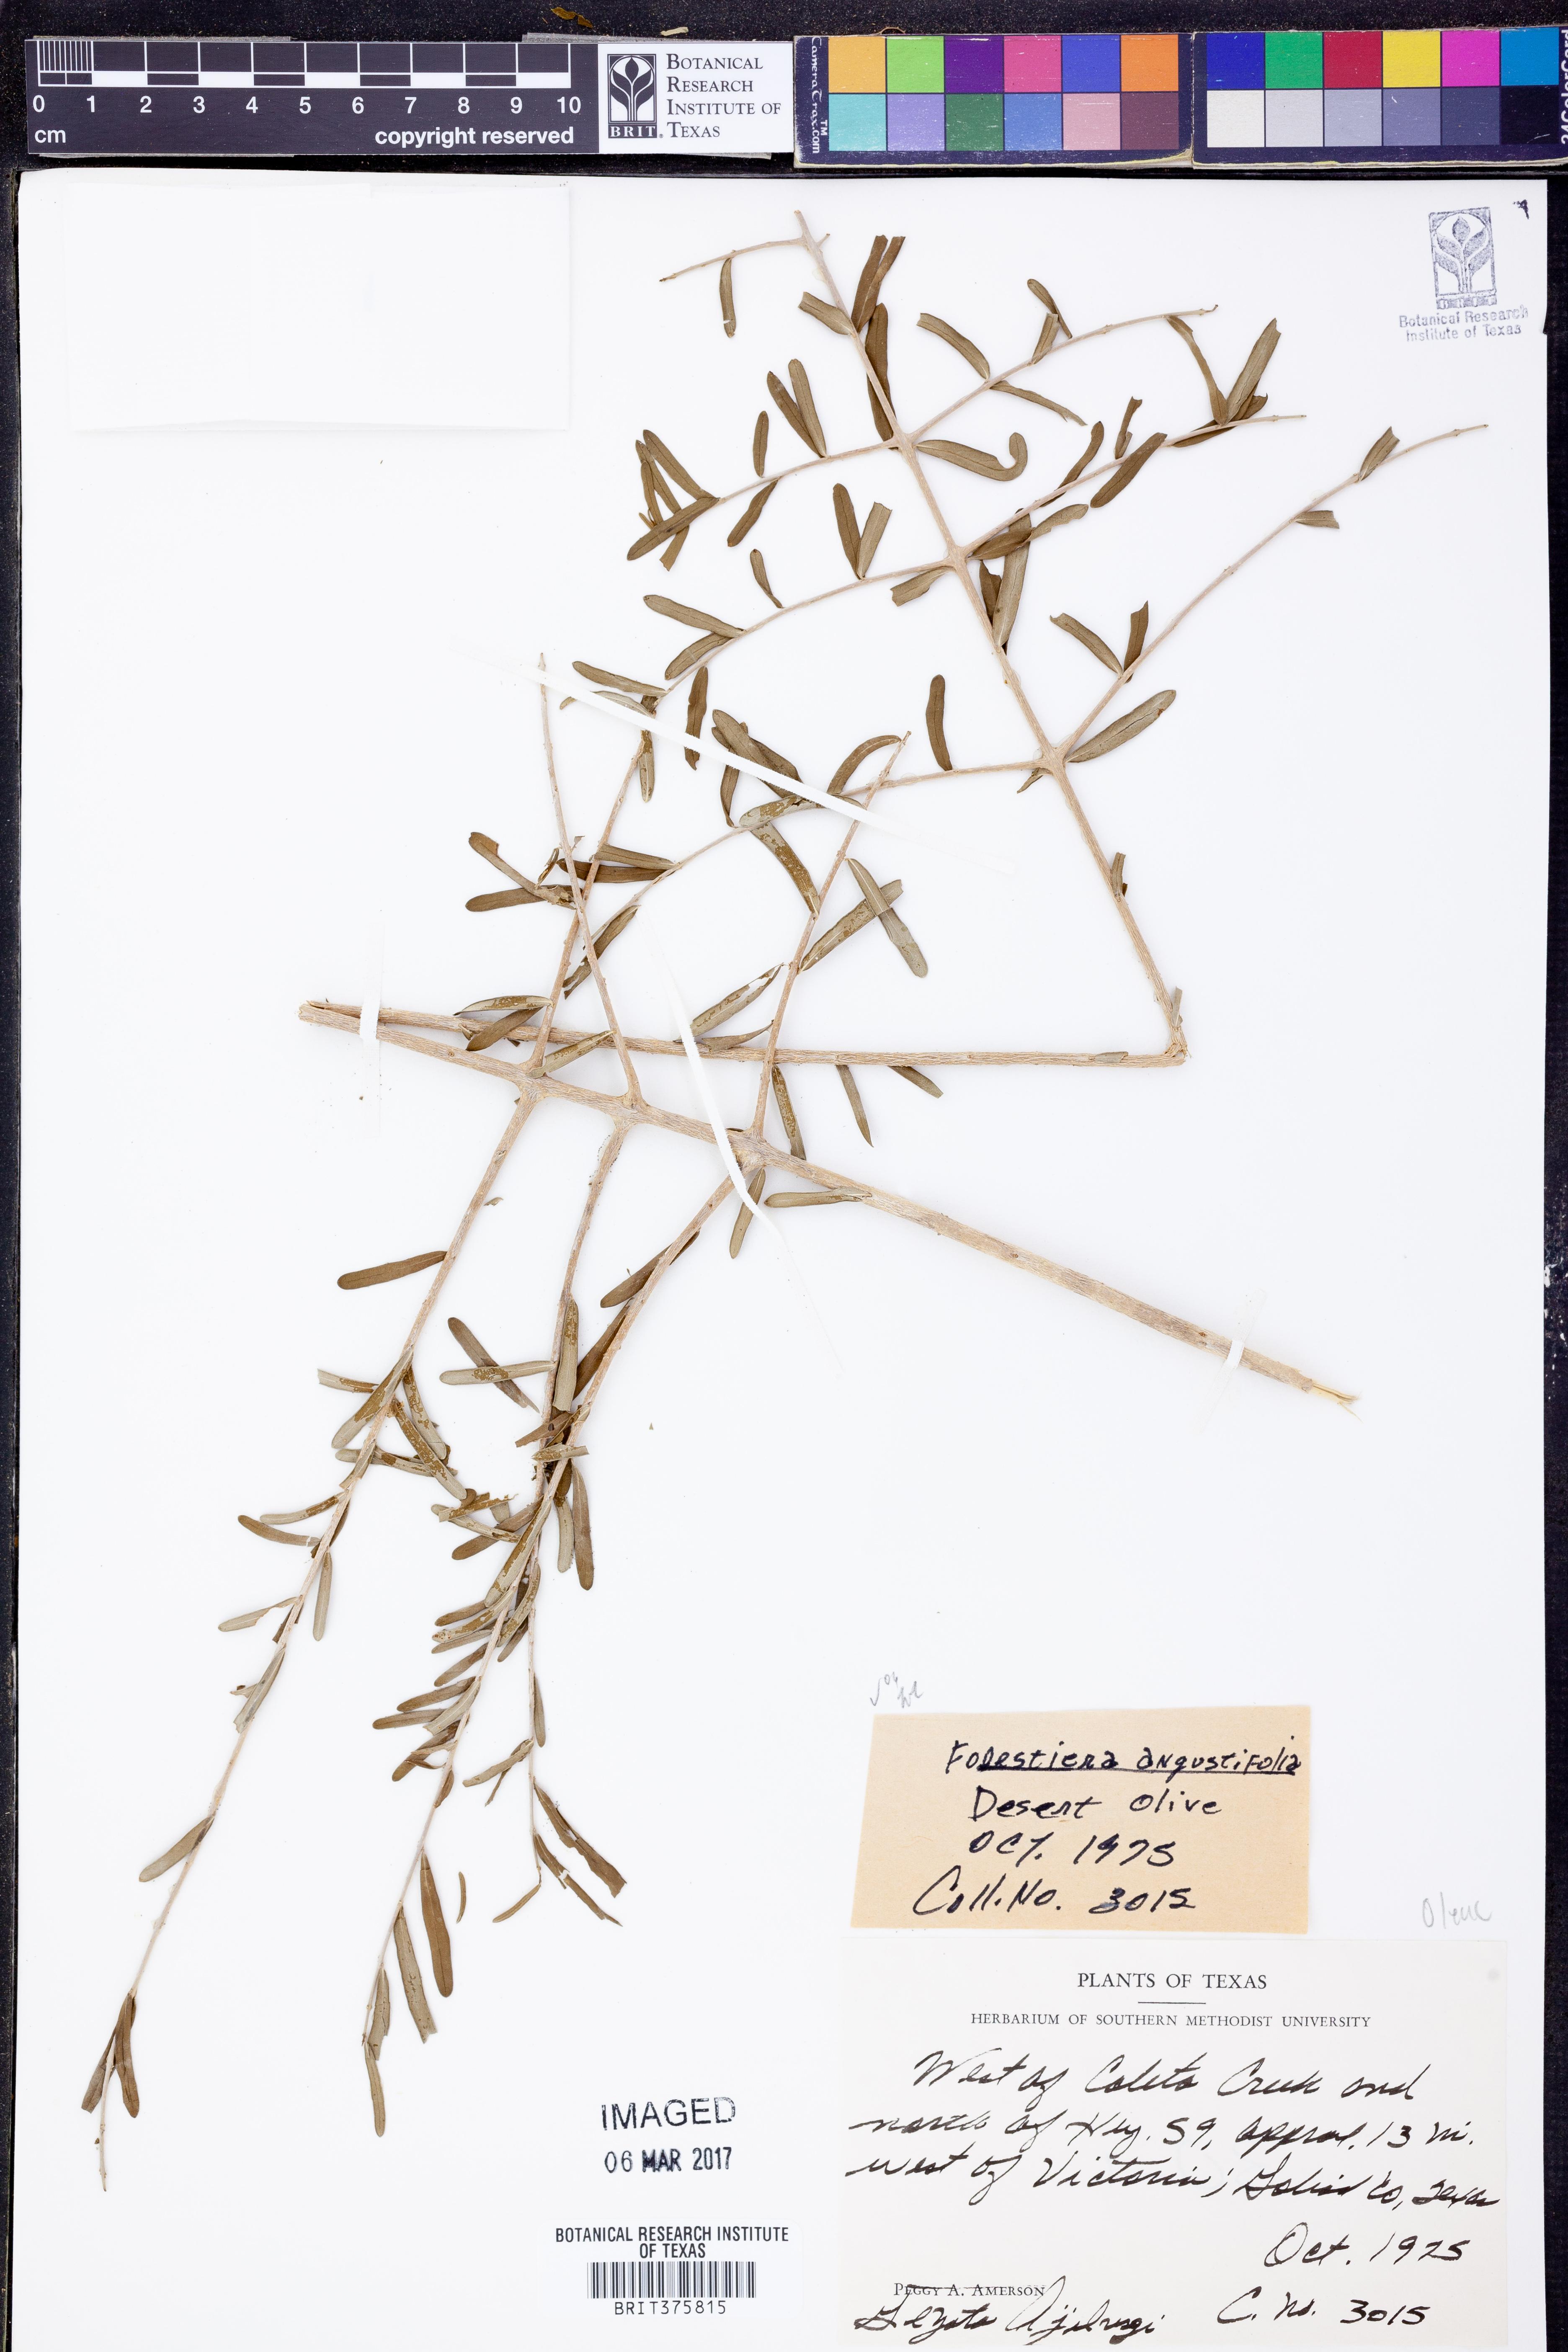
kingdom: Plantae
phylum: Tracheophyta
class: Magnoliopsida
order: Lamiales
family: Oleaceae
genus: Forestiera
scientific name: Forestiera angustifolia
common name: Elbowbush
